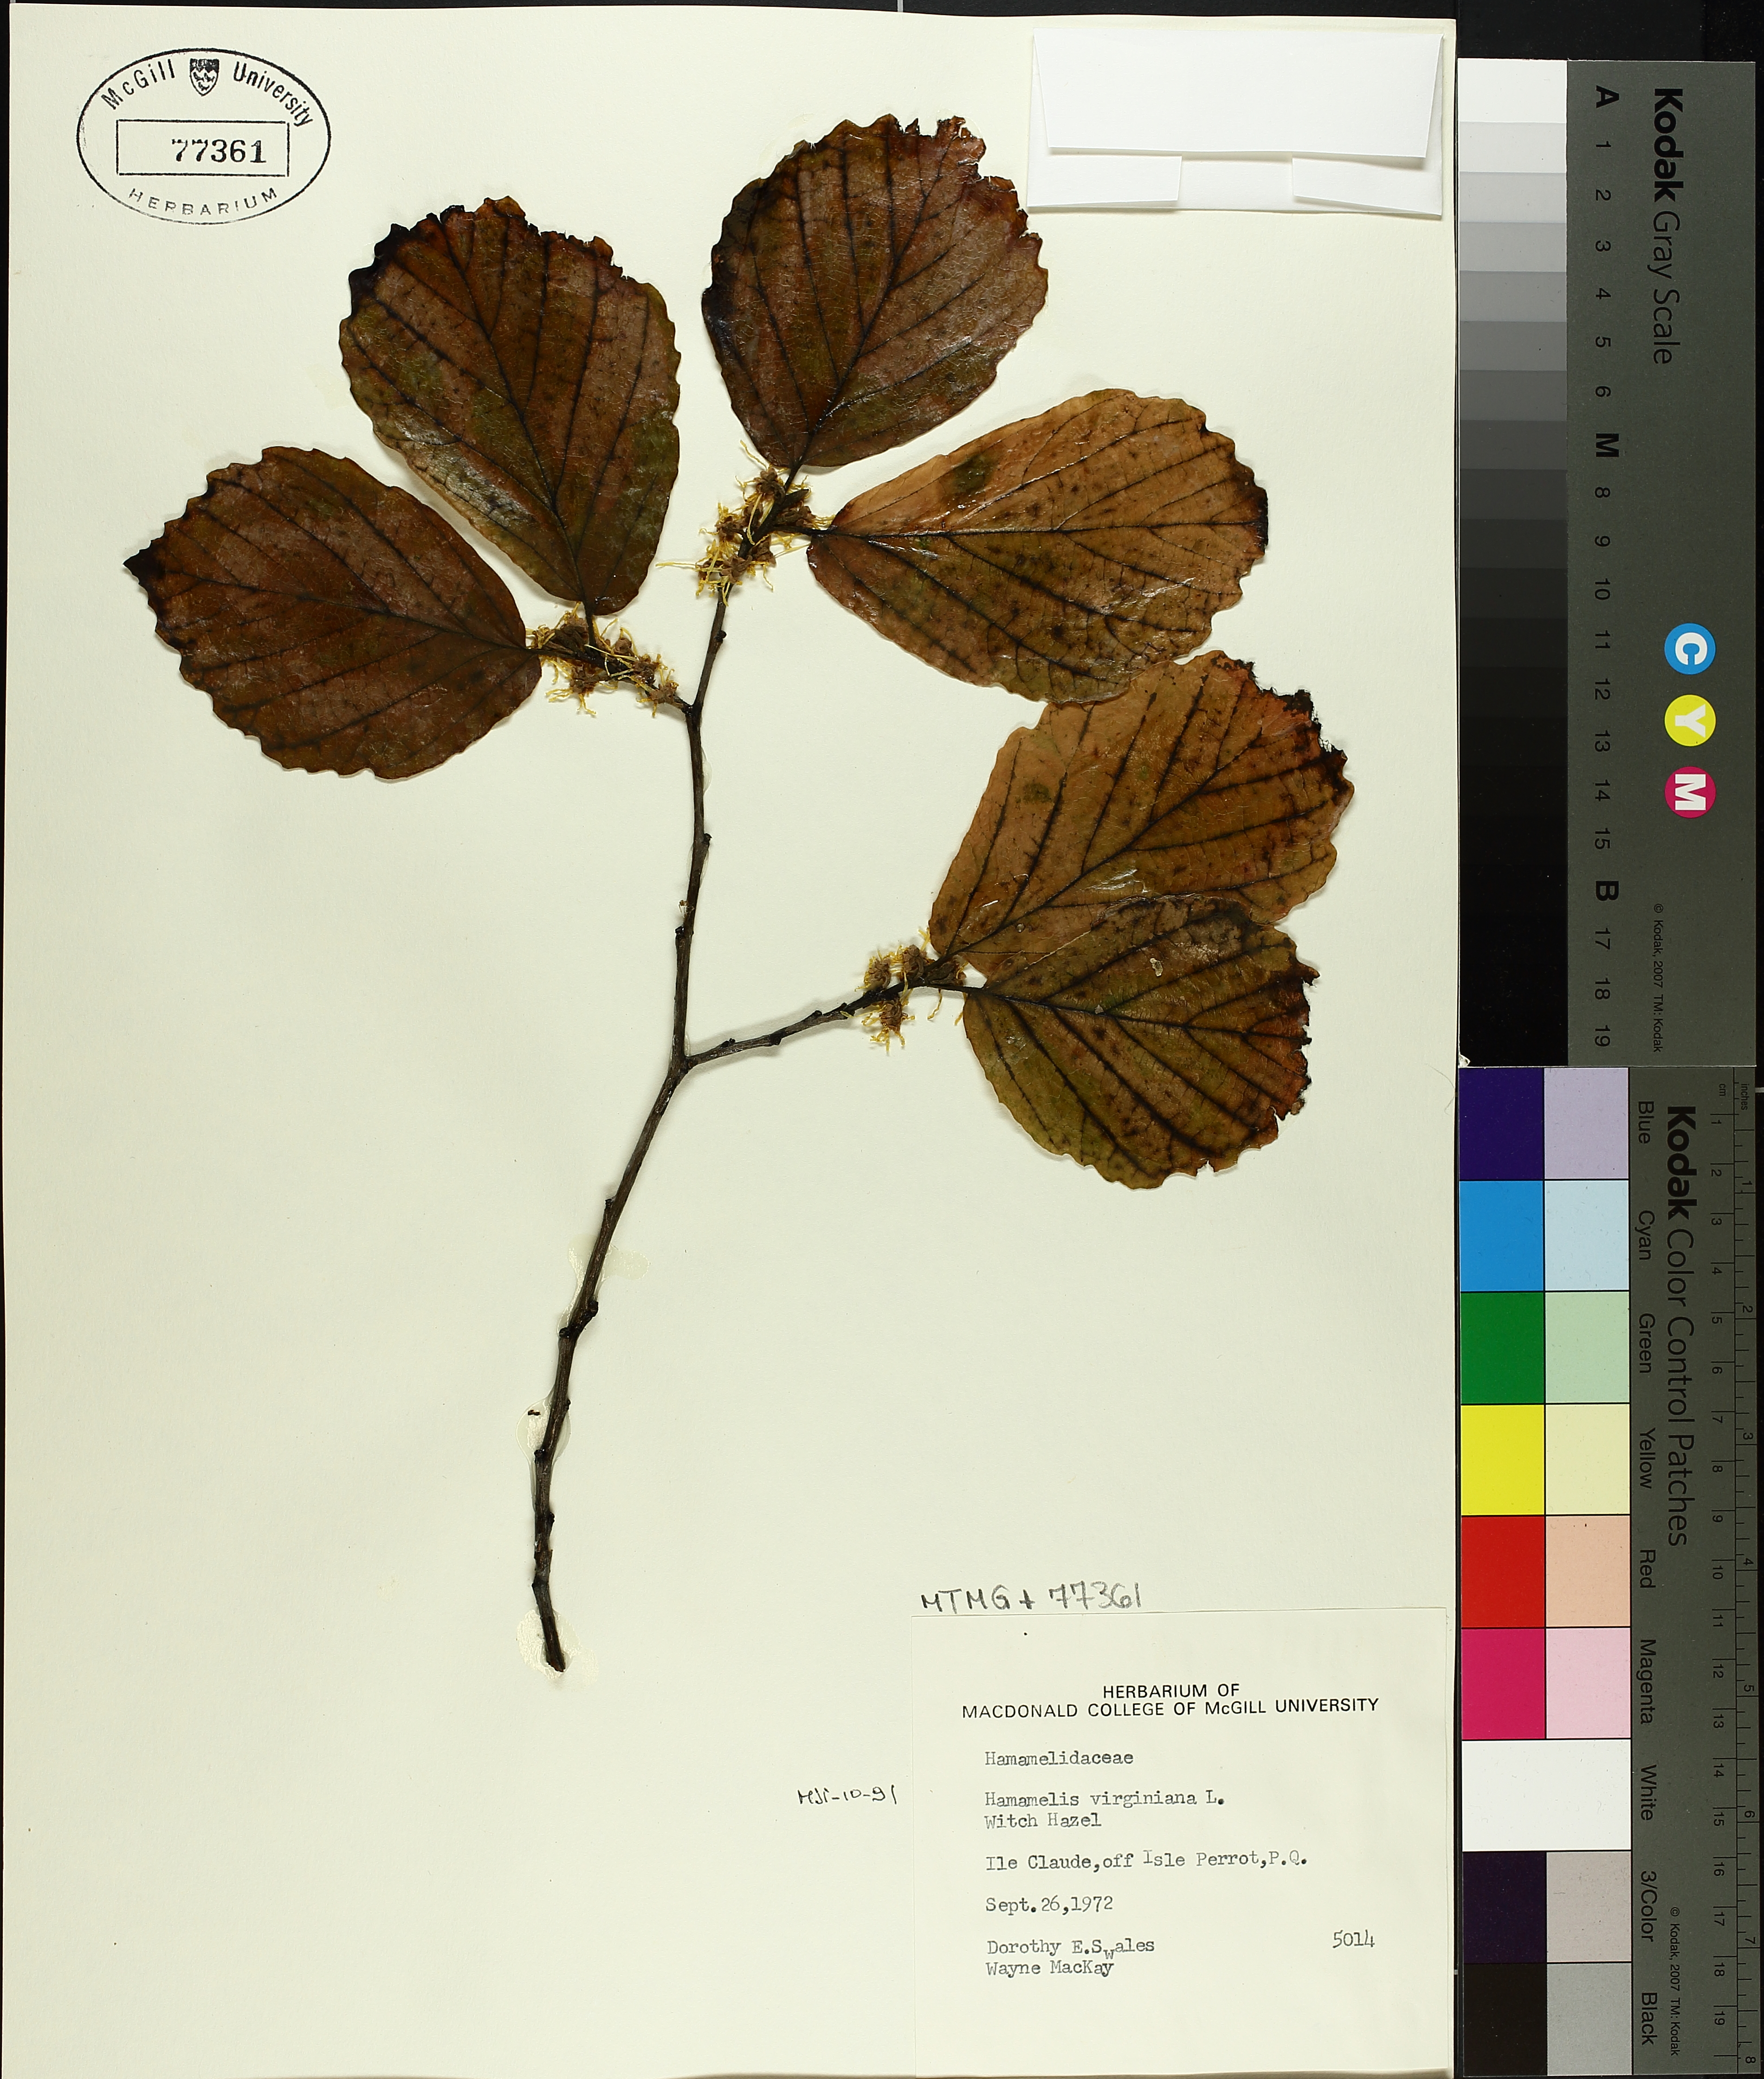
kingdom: Plantae
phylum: Tracheophyta
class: Magnoliopsida
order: Saxifragales
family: Hamamelidaceae
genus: Hamamelis
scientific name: Hamamelis virginiana
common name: Witch-hazel
